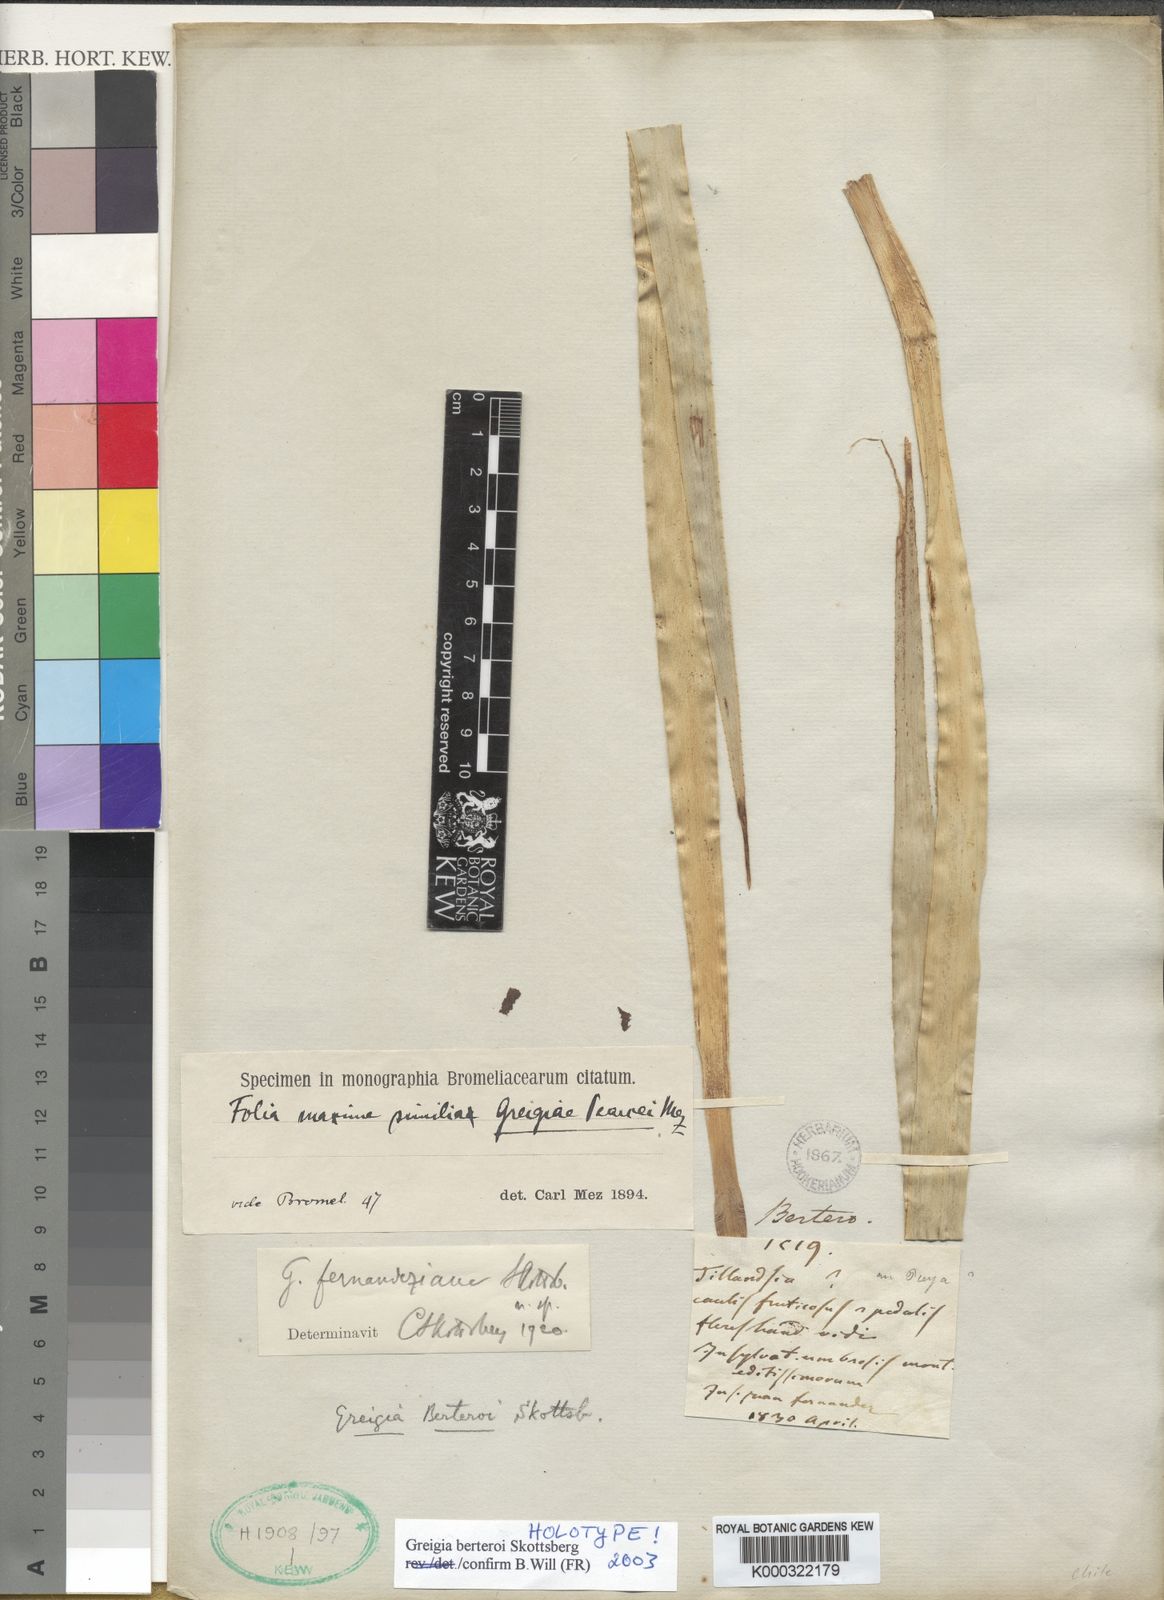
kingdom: Plantae
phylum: Tracheophyta
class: Liliopsida
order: Poales
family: Bromeliaceae
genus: Greigia
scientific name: Greigia
